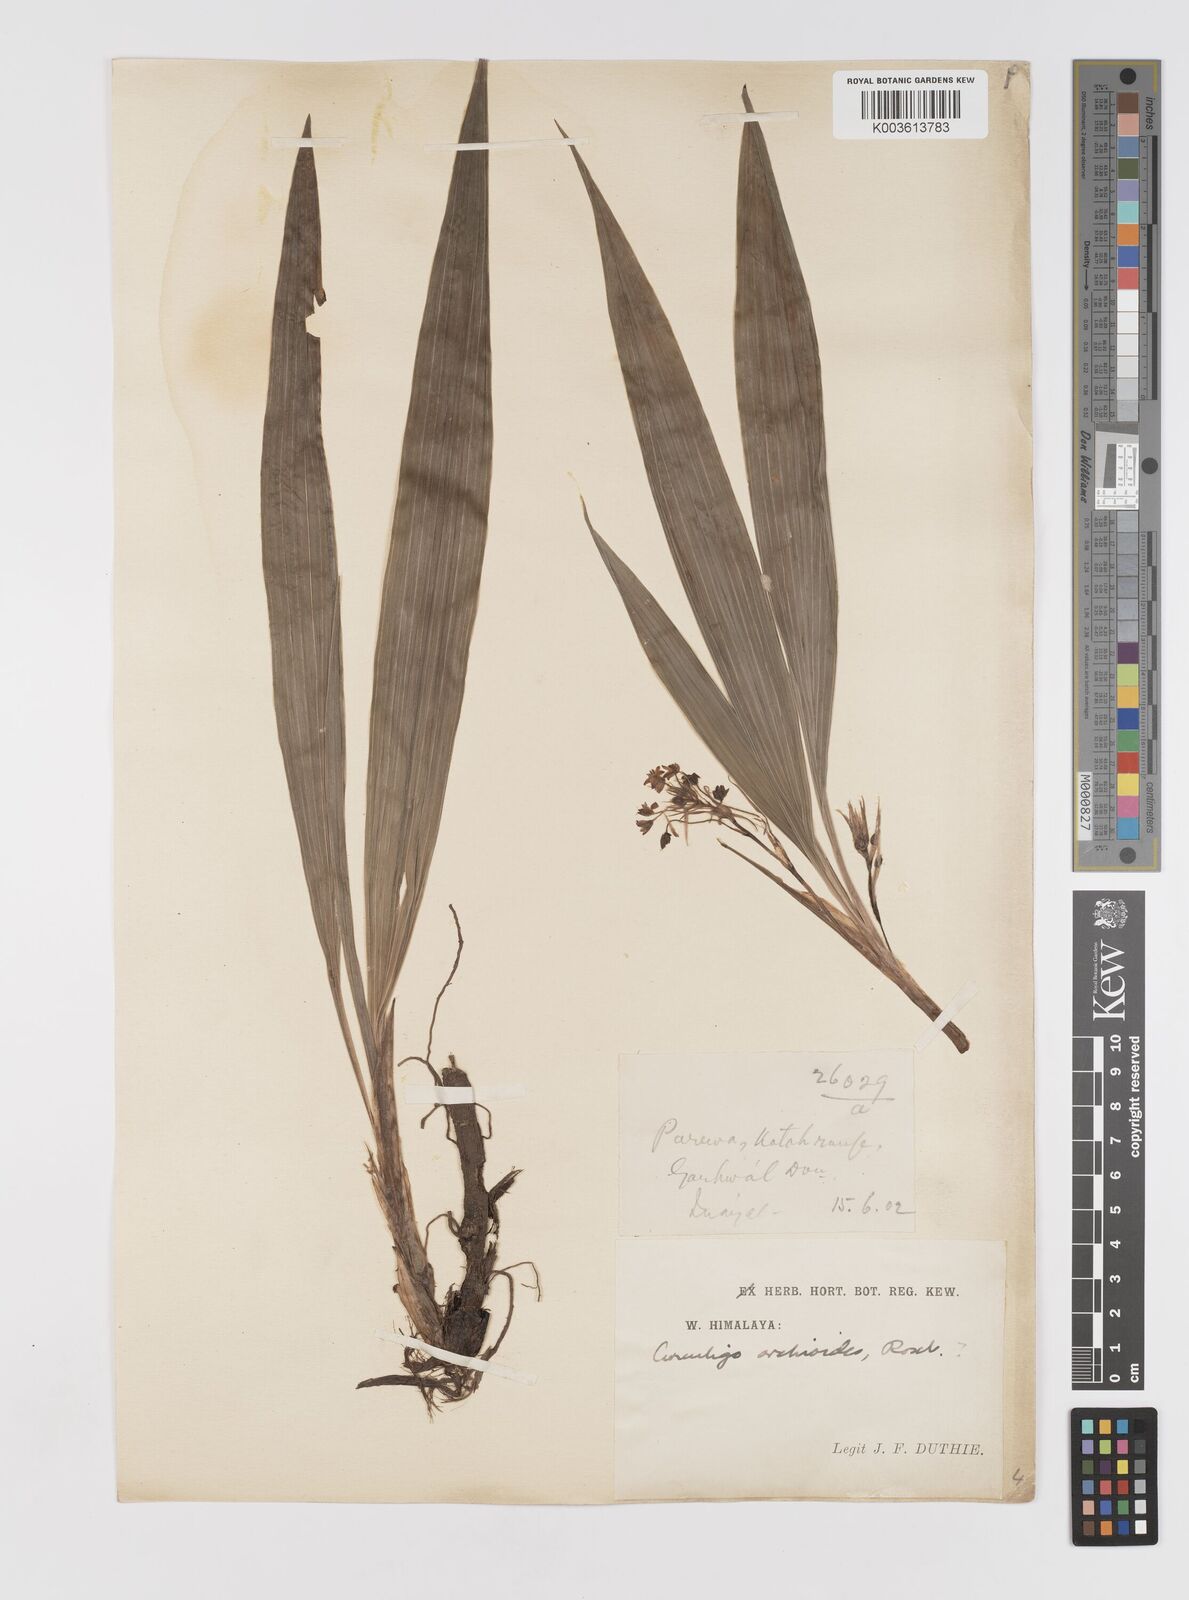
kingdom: Plantae
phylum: Tracheophyta
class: Liliopsida
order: Asparagales
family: Hypoxidaceae
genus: Curculigo
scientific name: Curculigo trichocarpa
